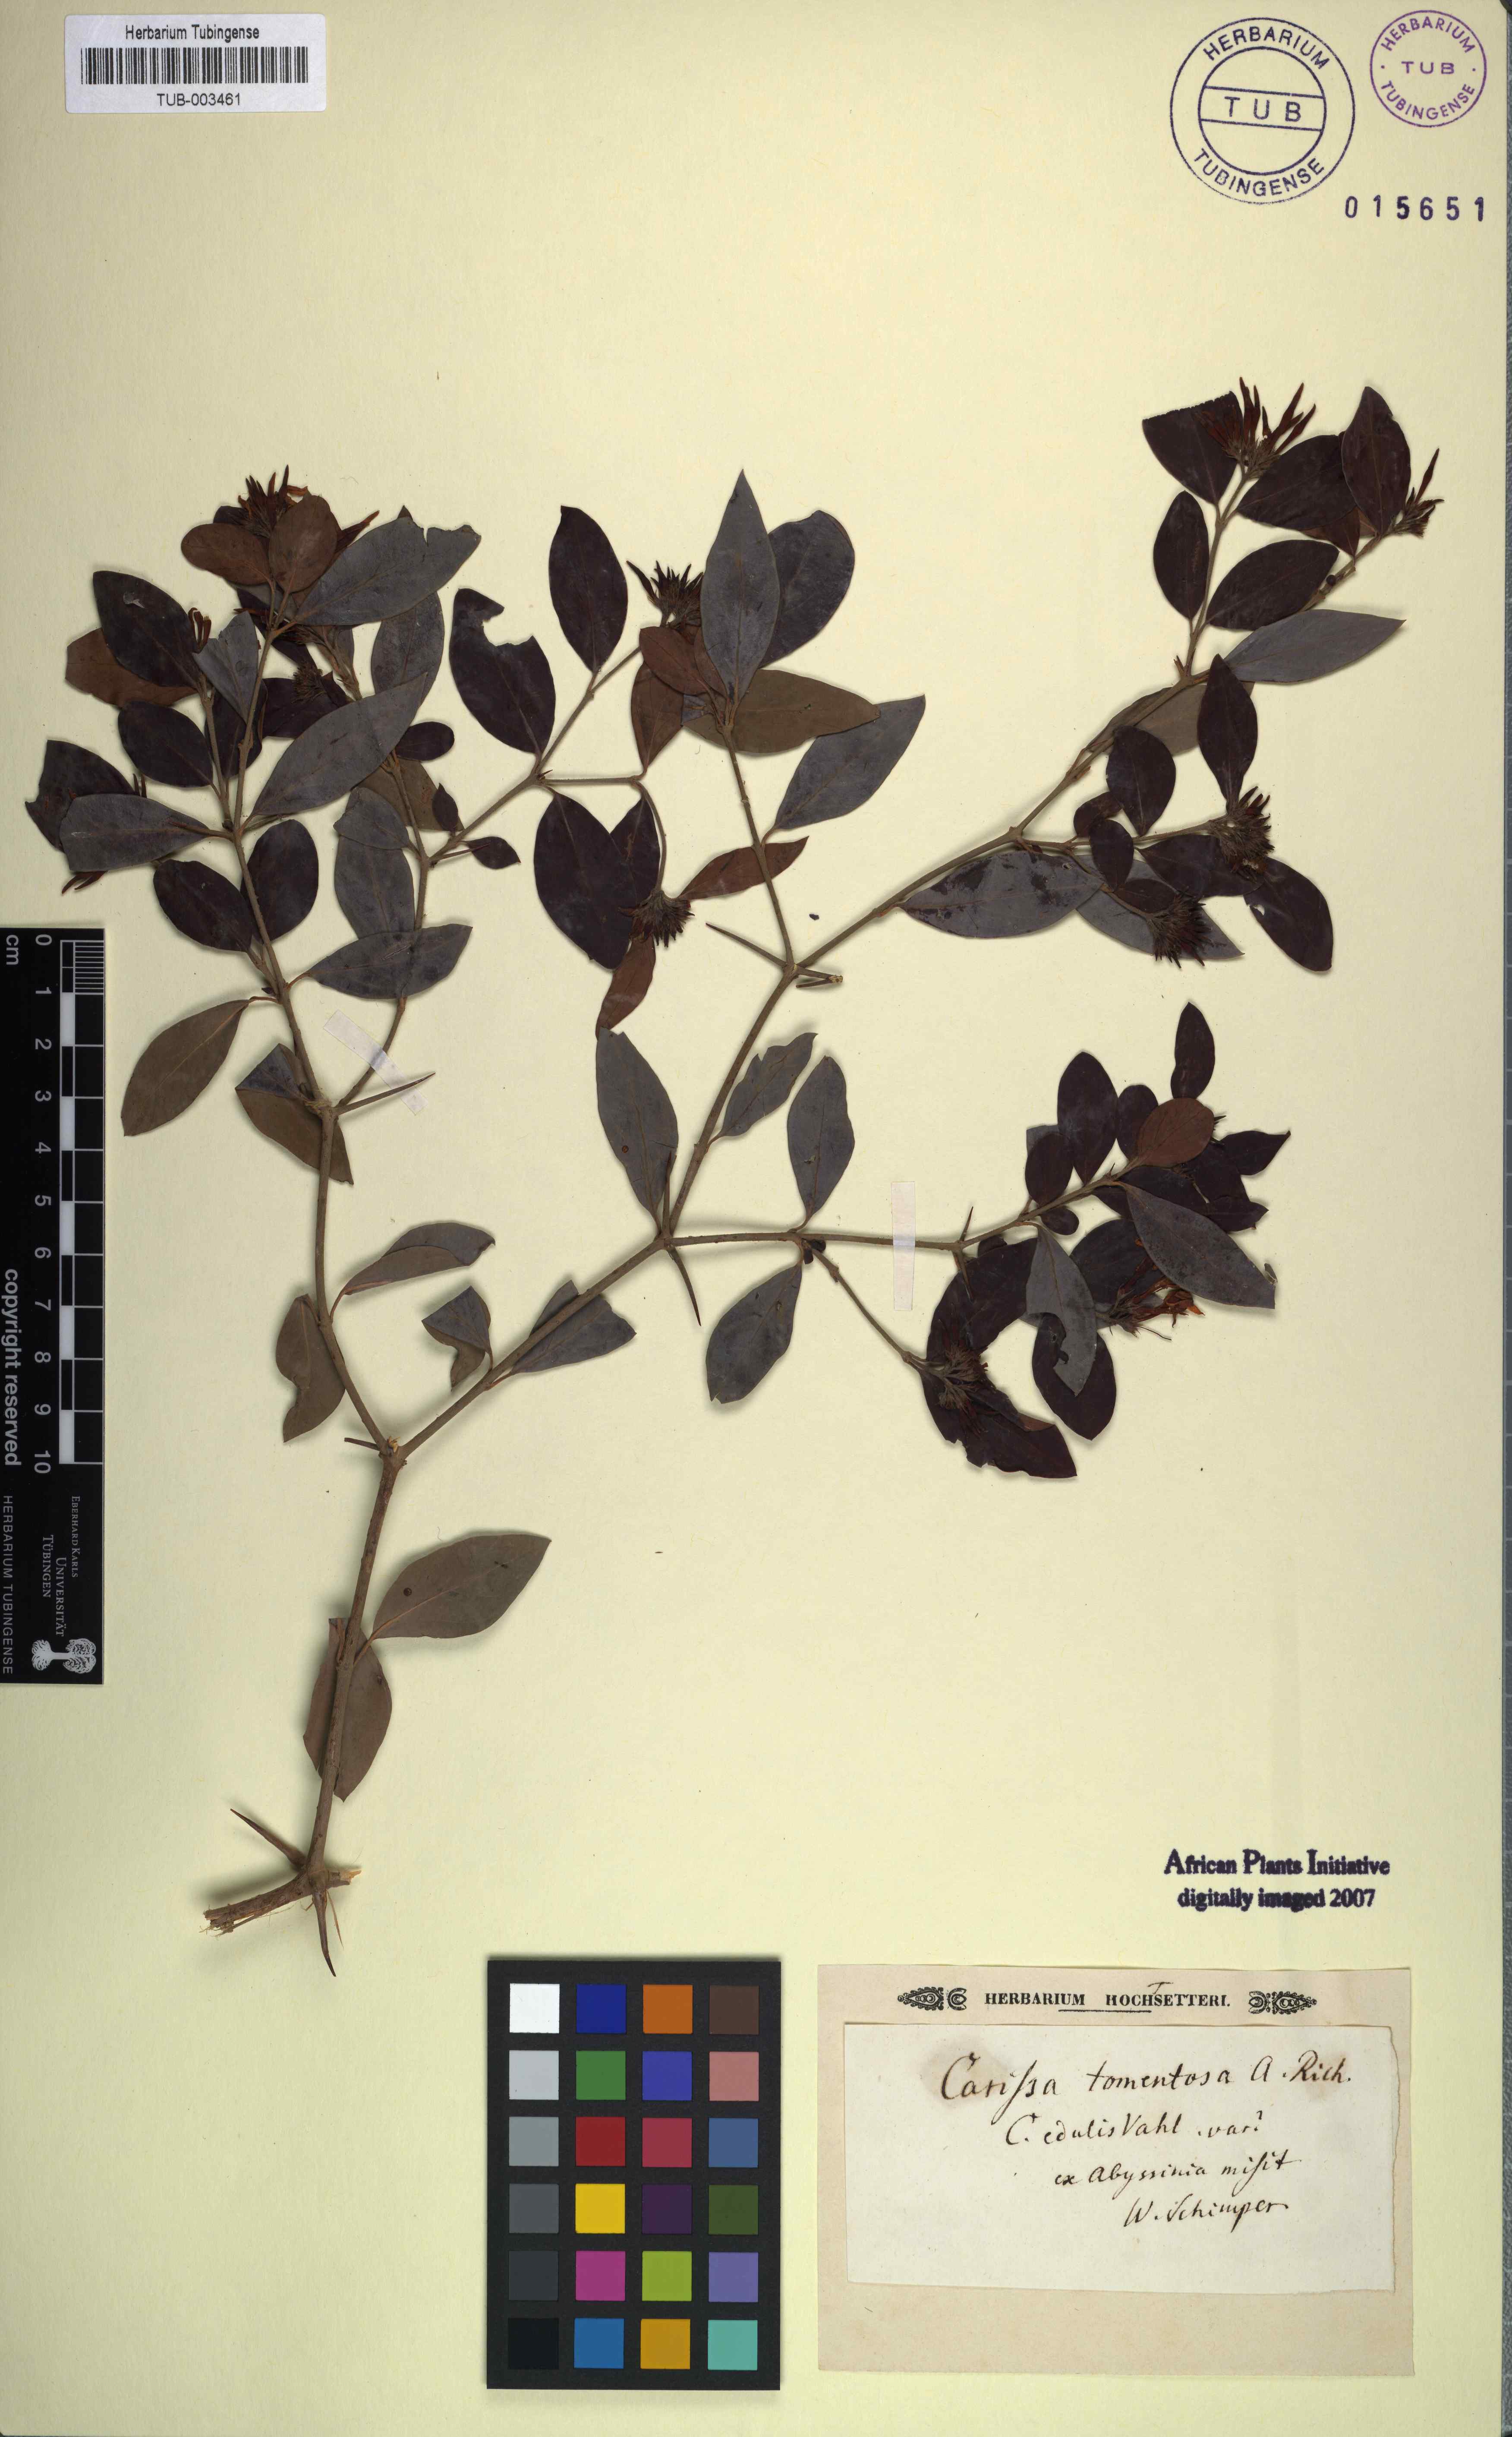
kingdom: Plantae
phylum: Tracheophyta
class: Magnoliopsida
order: Gentianales
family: Apocynaceae
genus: Carissa
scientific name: Carissa spinarum
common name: Egyptian carissa
